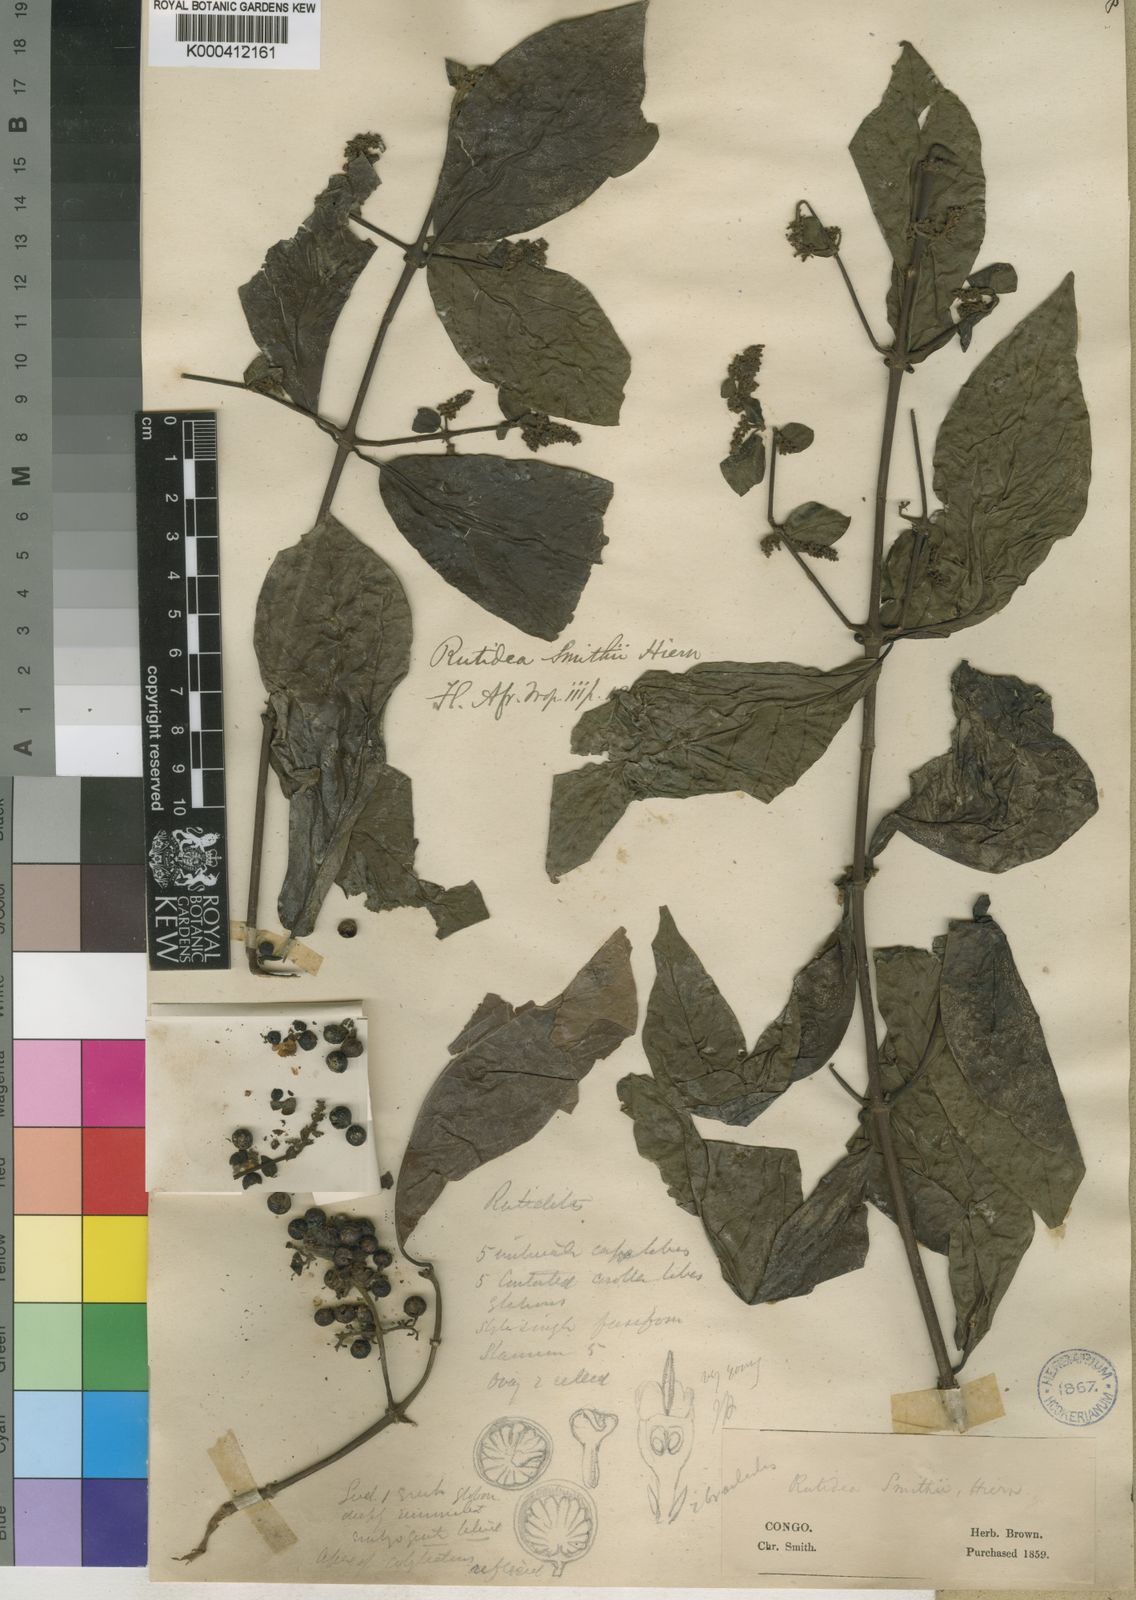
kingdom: Plantae
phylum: Tracheophyta
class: Magnoliopsida
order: Gentianales
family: Rubiaceae
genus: Rutidea
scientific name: Rutidea smithii
